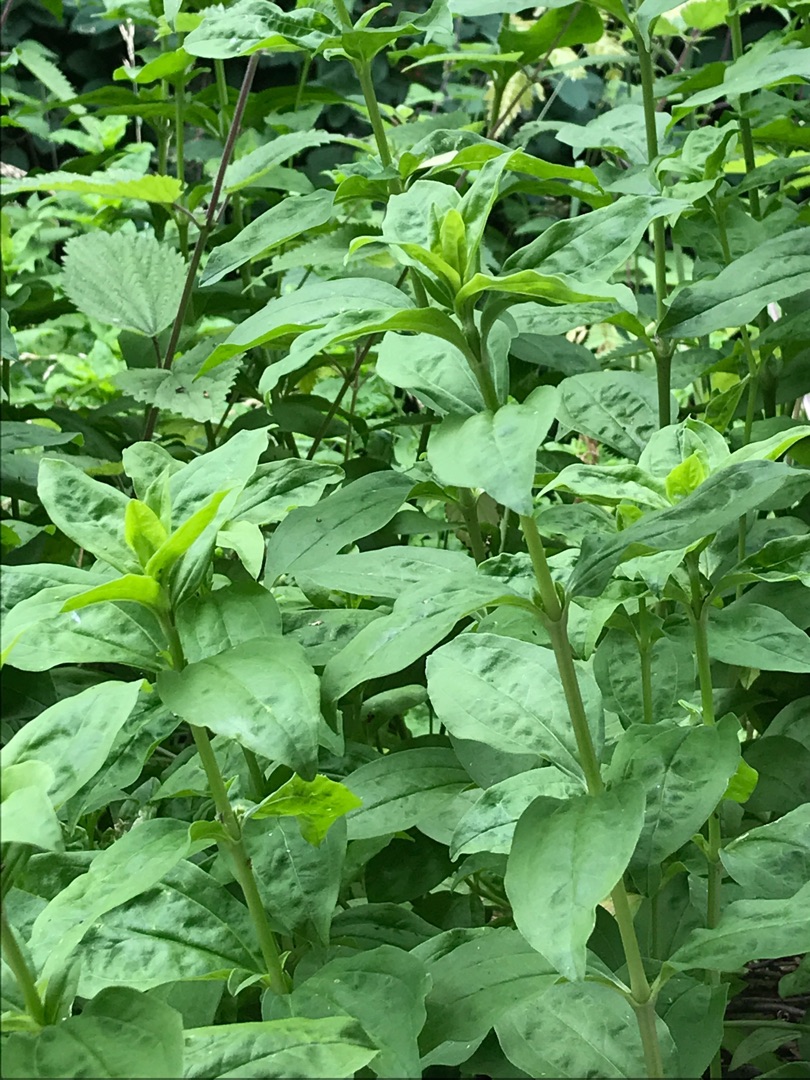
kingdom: Plantae
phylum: Tracheophyta
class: Magnoliopsida
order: Caryophyllales
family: Caryophyllaceae
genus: Saponaria
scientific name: Saponaria officinalis
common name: Sæbeurt
